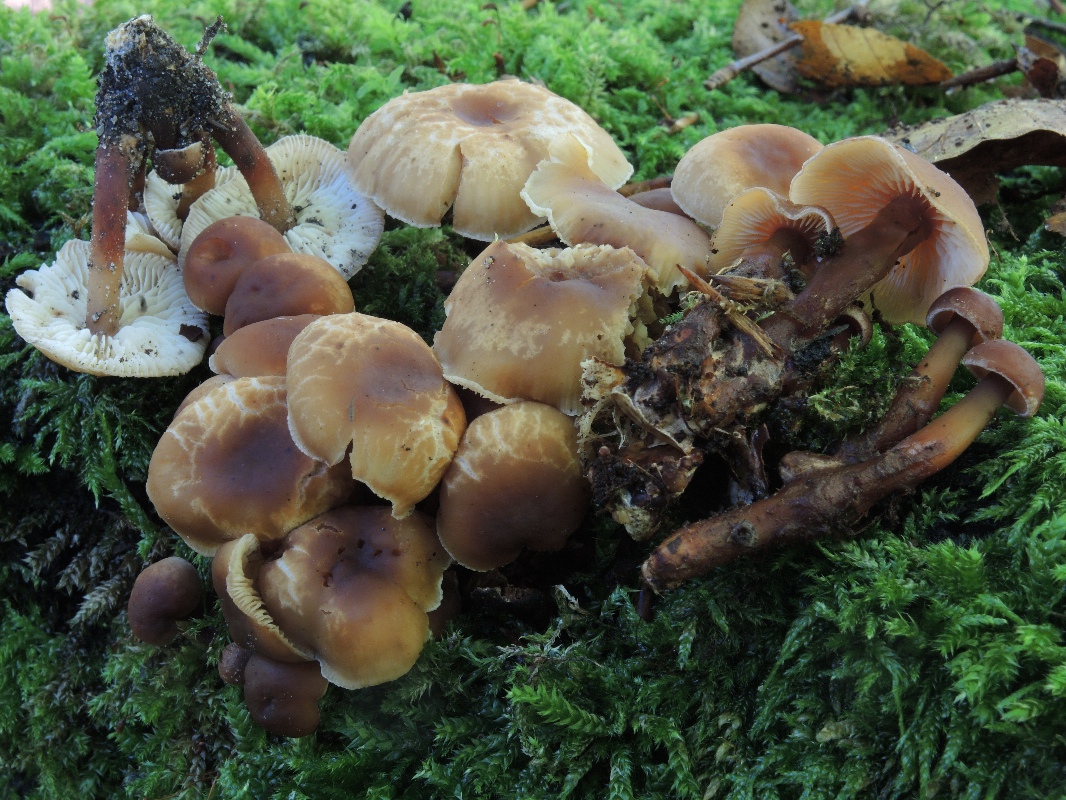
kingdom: Fungi
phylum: Basidiomycota
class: Agaricomycetes
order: Agaricales
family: Omphalotaceae
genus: Gymnopus
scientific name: Gymnopus erythropus
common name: rødstokket fladhat
